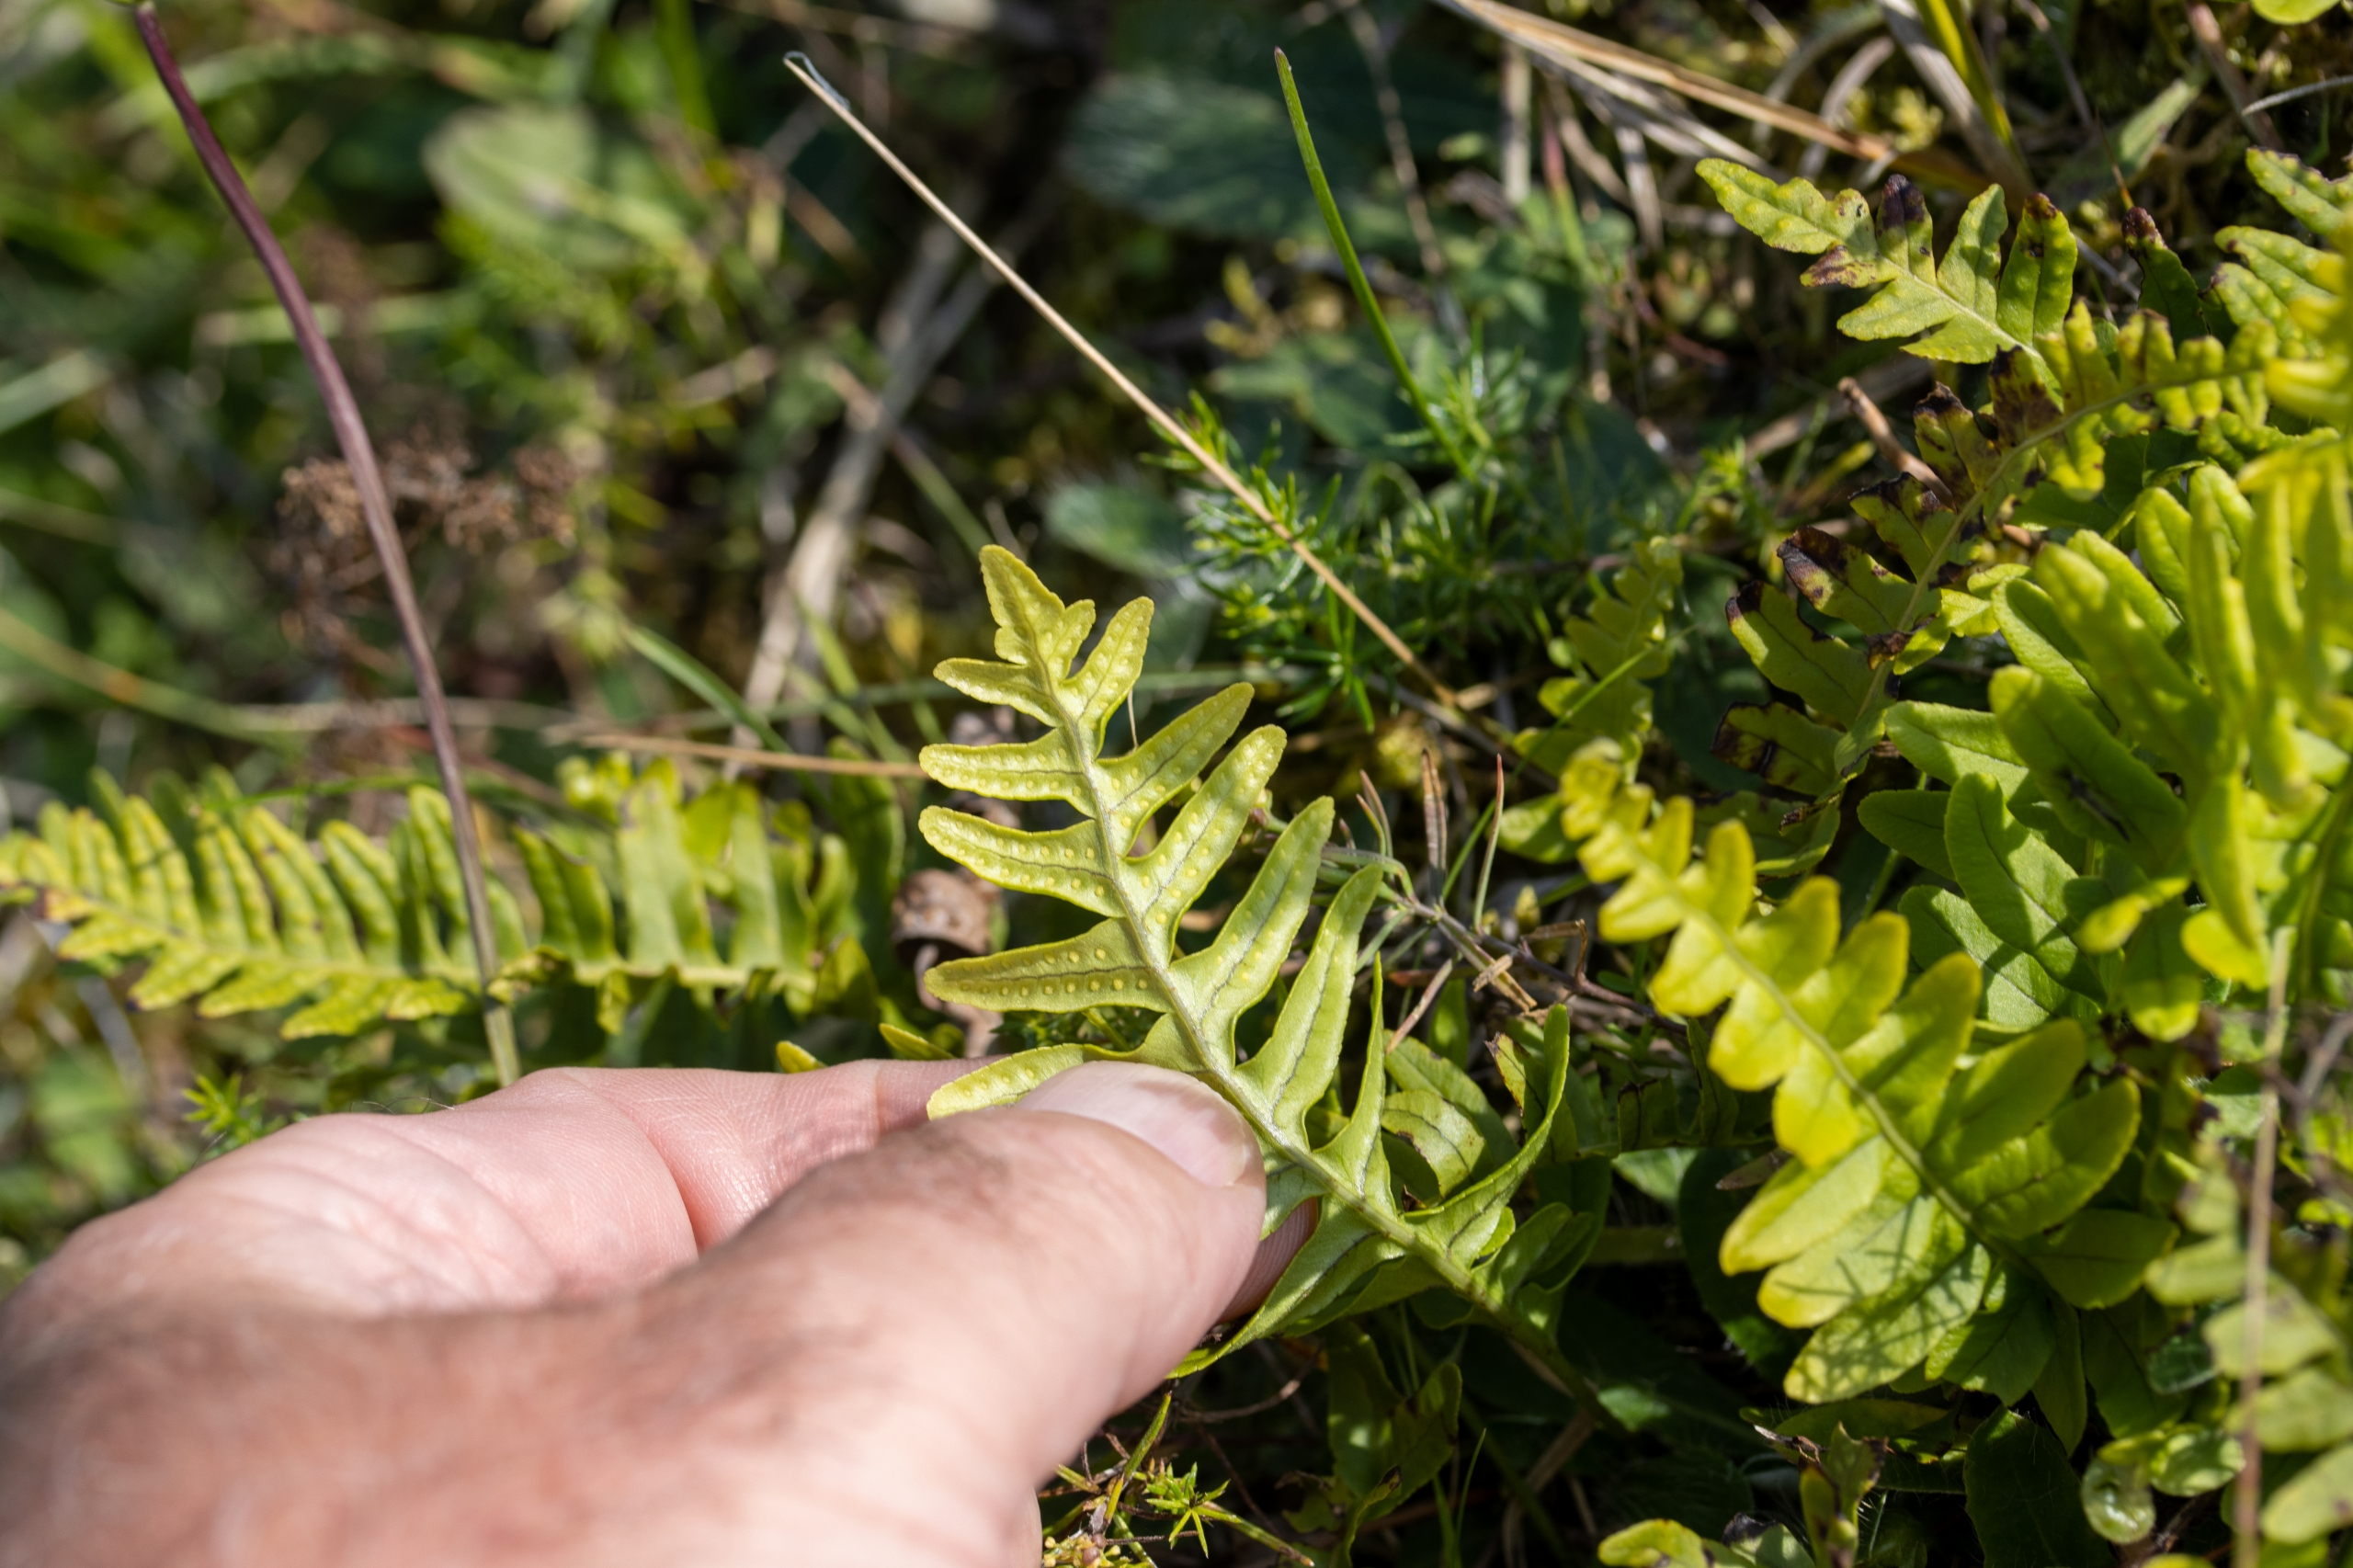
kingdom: Plantae
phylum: Tracheophyta
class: Polypodiopsida
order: Polypodiales
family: Polypodiaceae
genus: Polypodium
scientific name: Polypodium vulgare
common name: Almindelig engelsød
